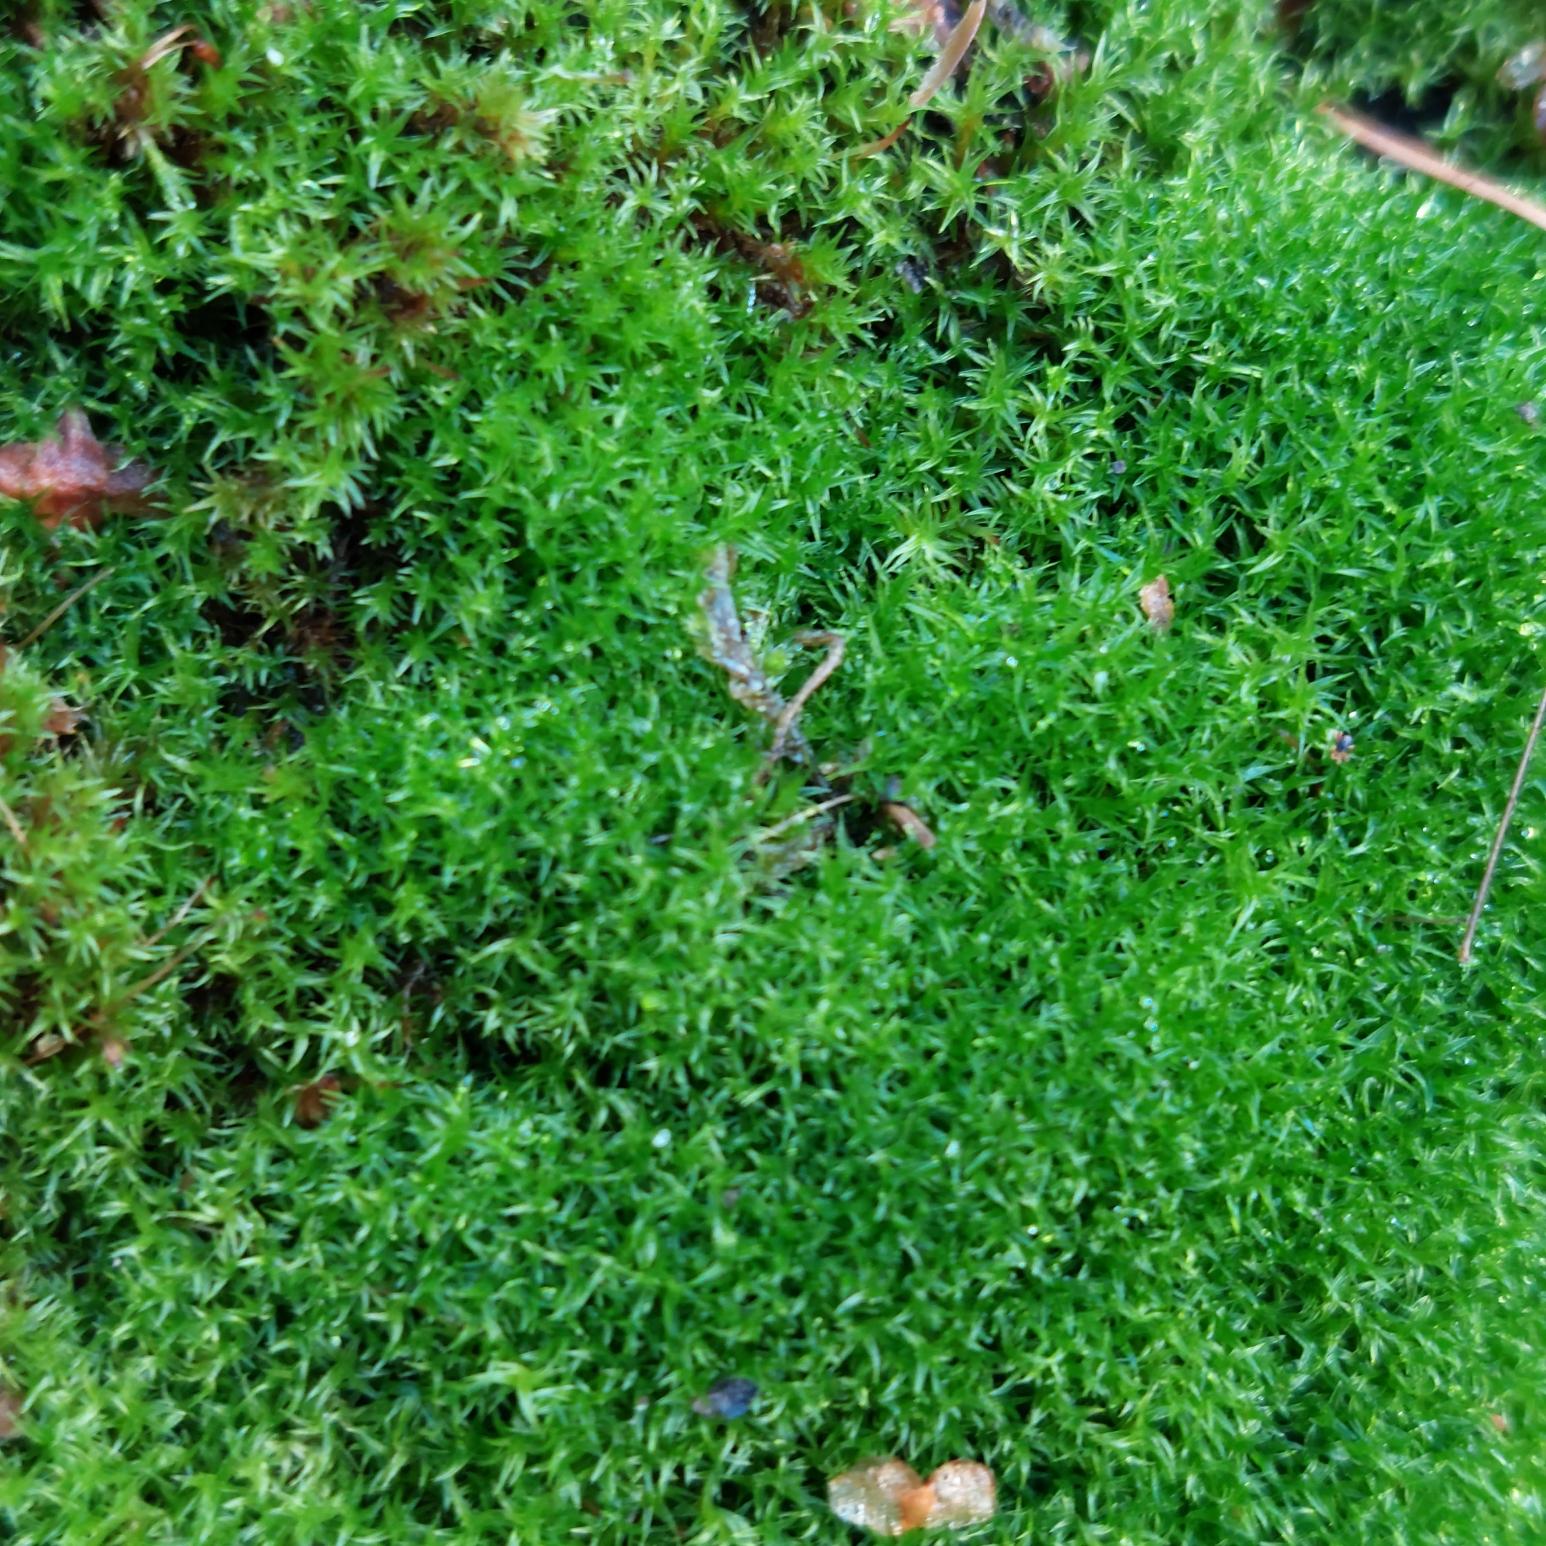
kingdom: Plantae
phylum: Bryophyta
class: Bryopsida
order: Dicranales
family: Ditrichaceae
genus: Ceratodon
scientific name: Ceratodon purpureus
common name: Rød horntand
